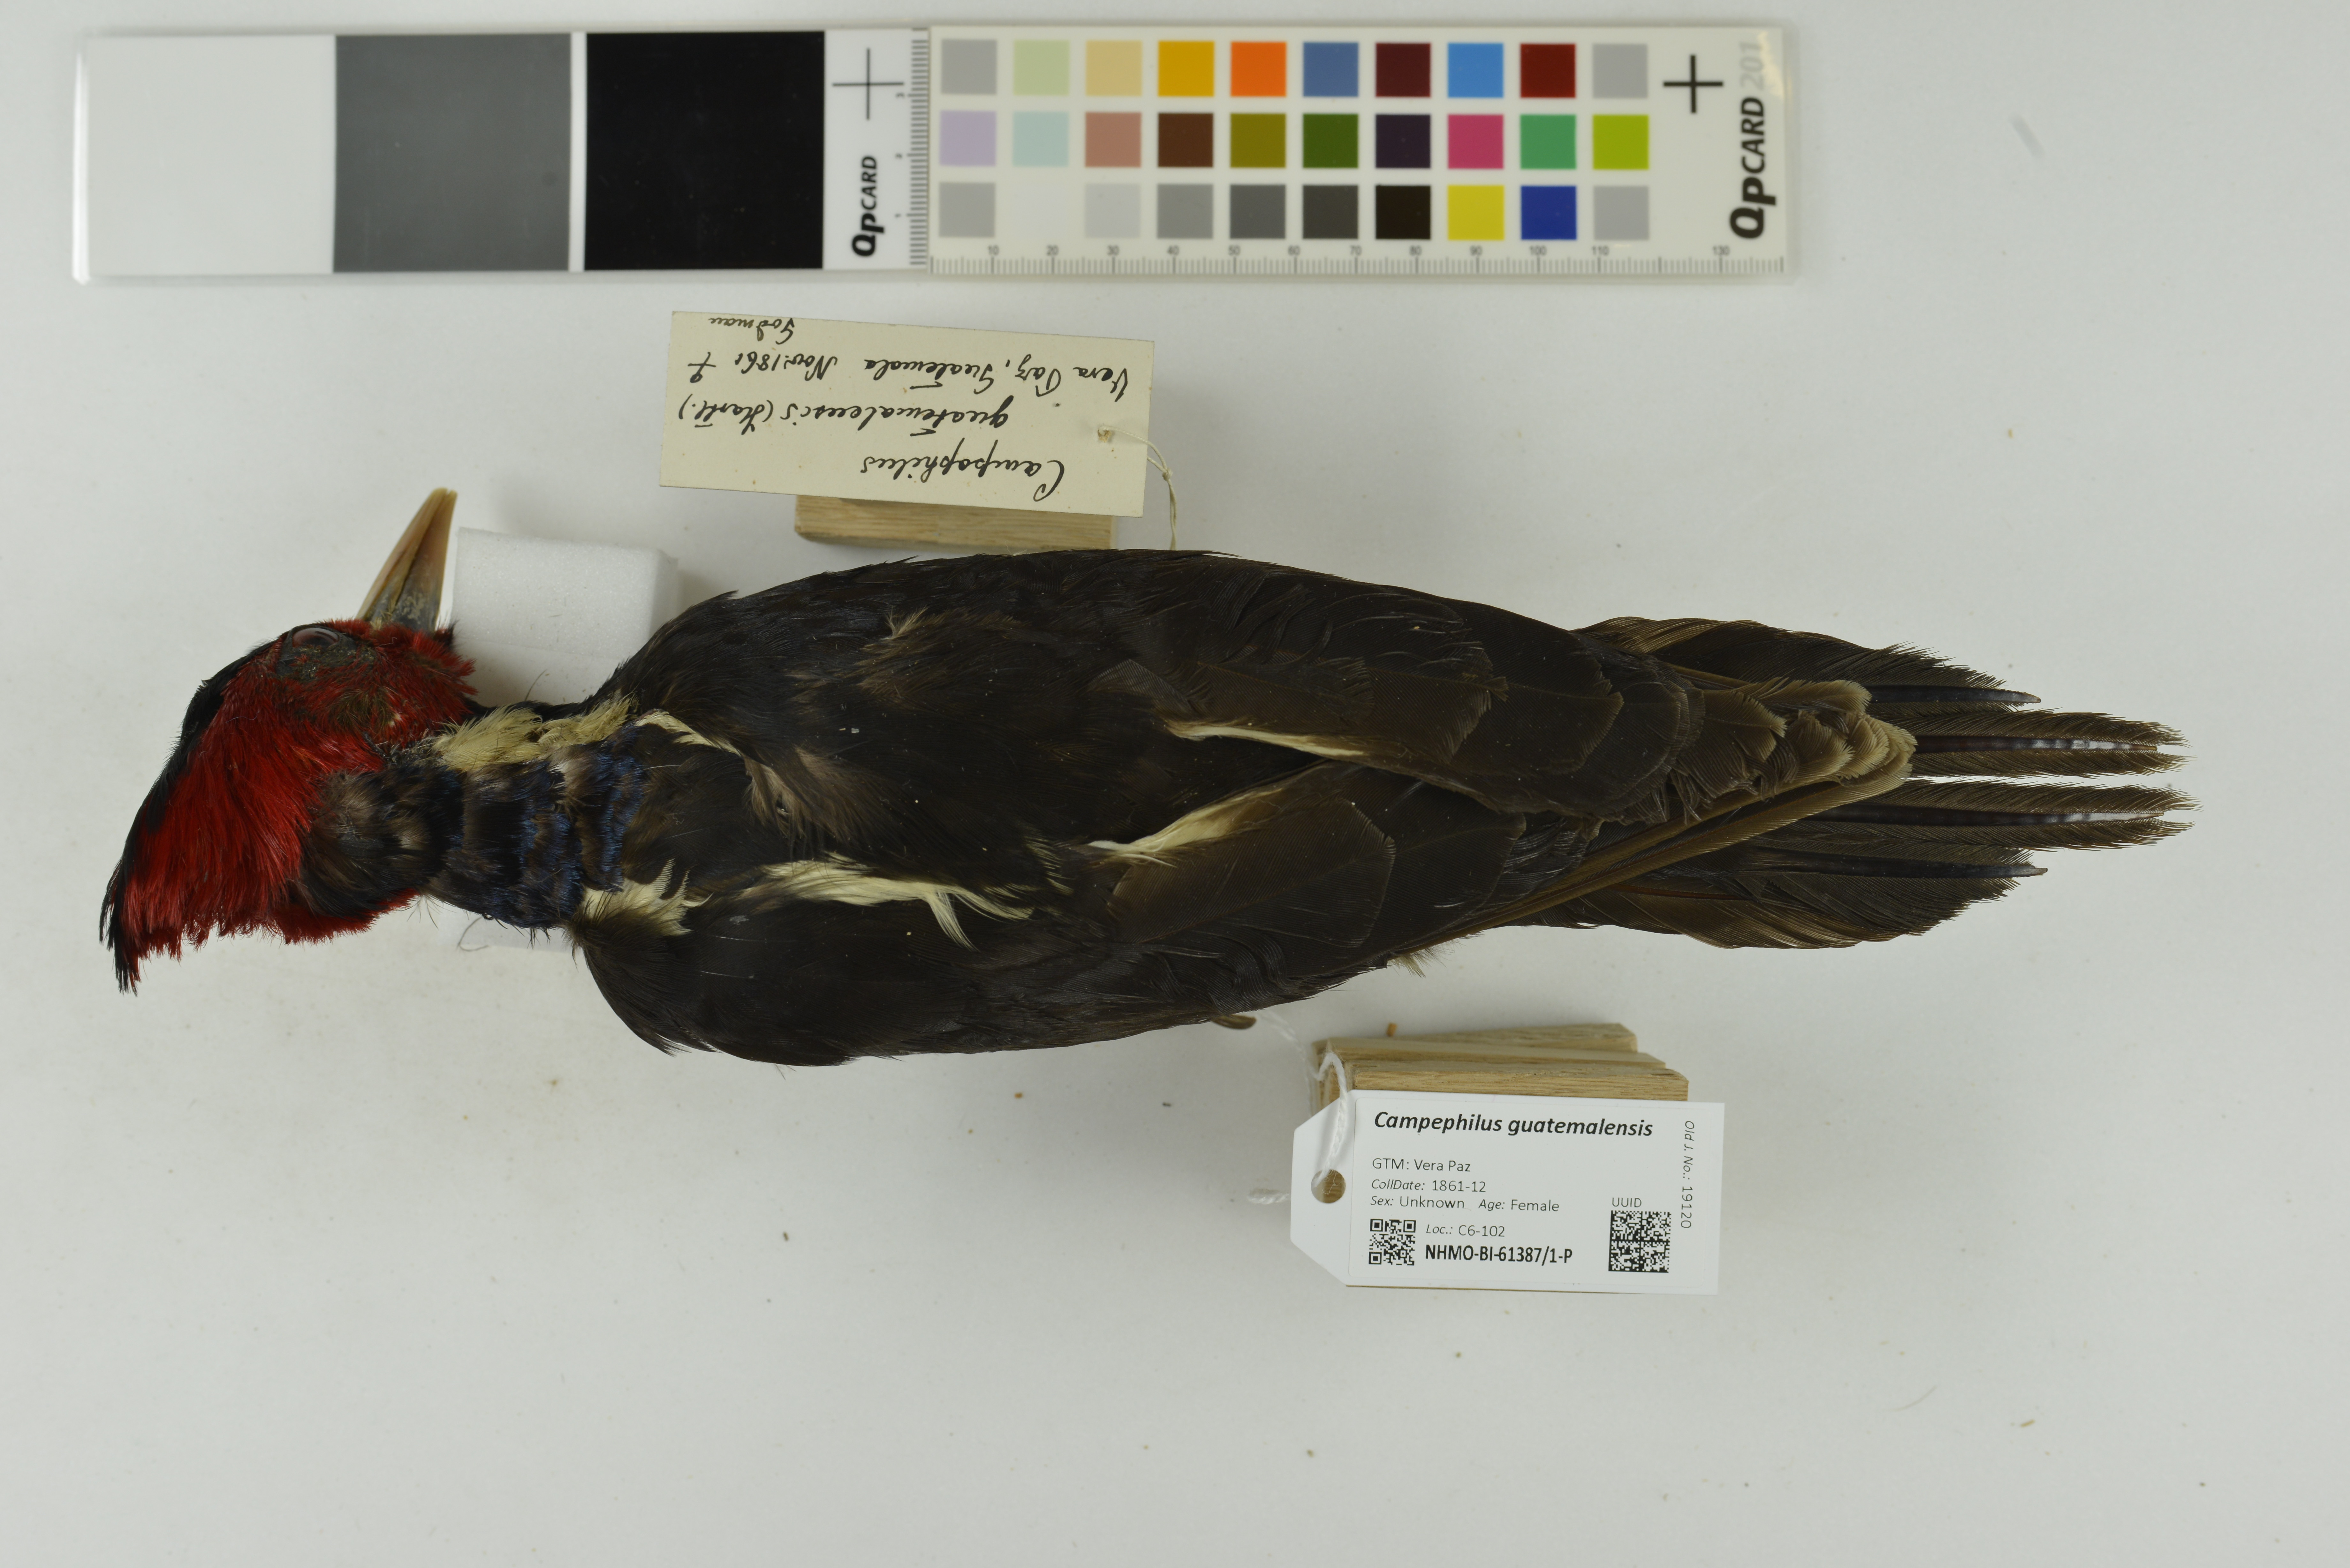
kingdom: Animalia
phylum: Chordata
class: Aves
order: Piciformes
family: Picidae
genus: Campephilus
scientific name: Campephilus guatemalensis
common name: Pale-billed woodpecker
